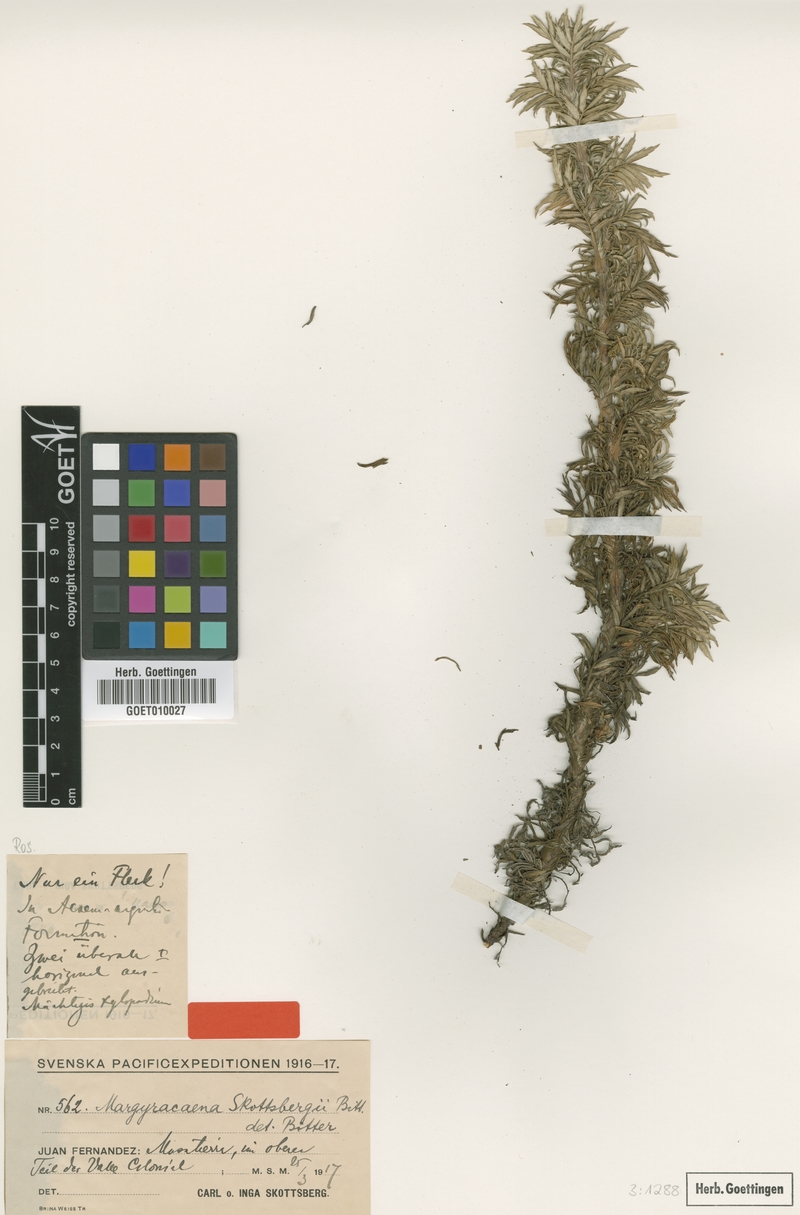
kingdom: Plantae
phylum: Tracheophyta
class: Magnoliopsida
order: Rosales
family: Rosaceae
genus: Margyracaena
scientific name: Margyracaena skottsbergii
